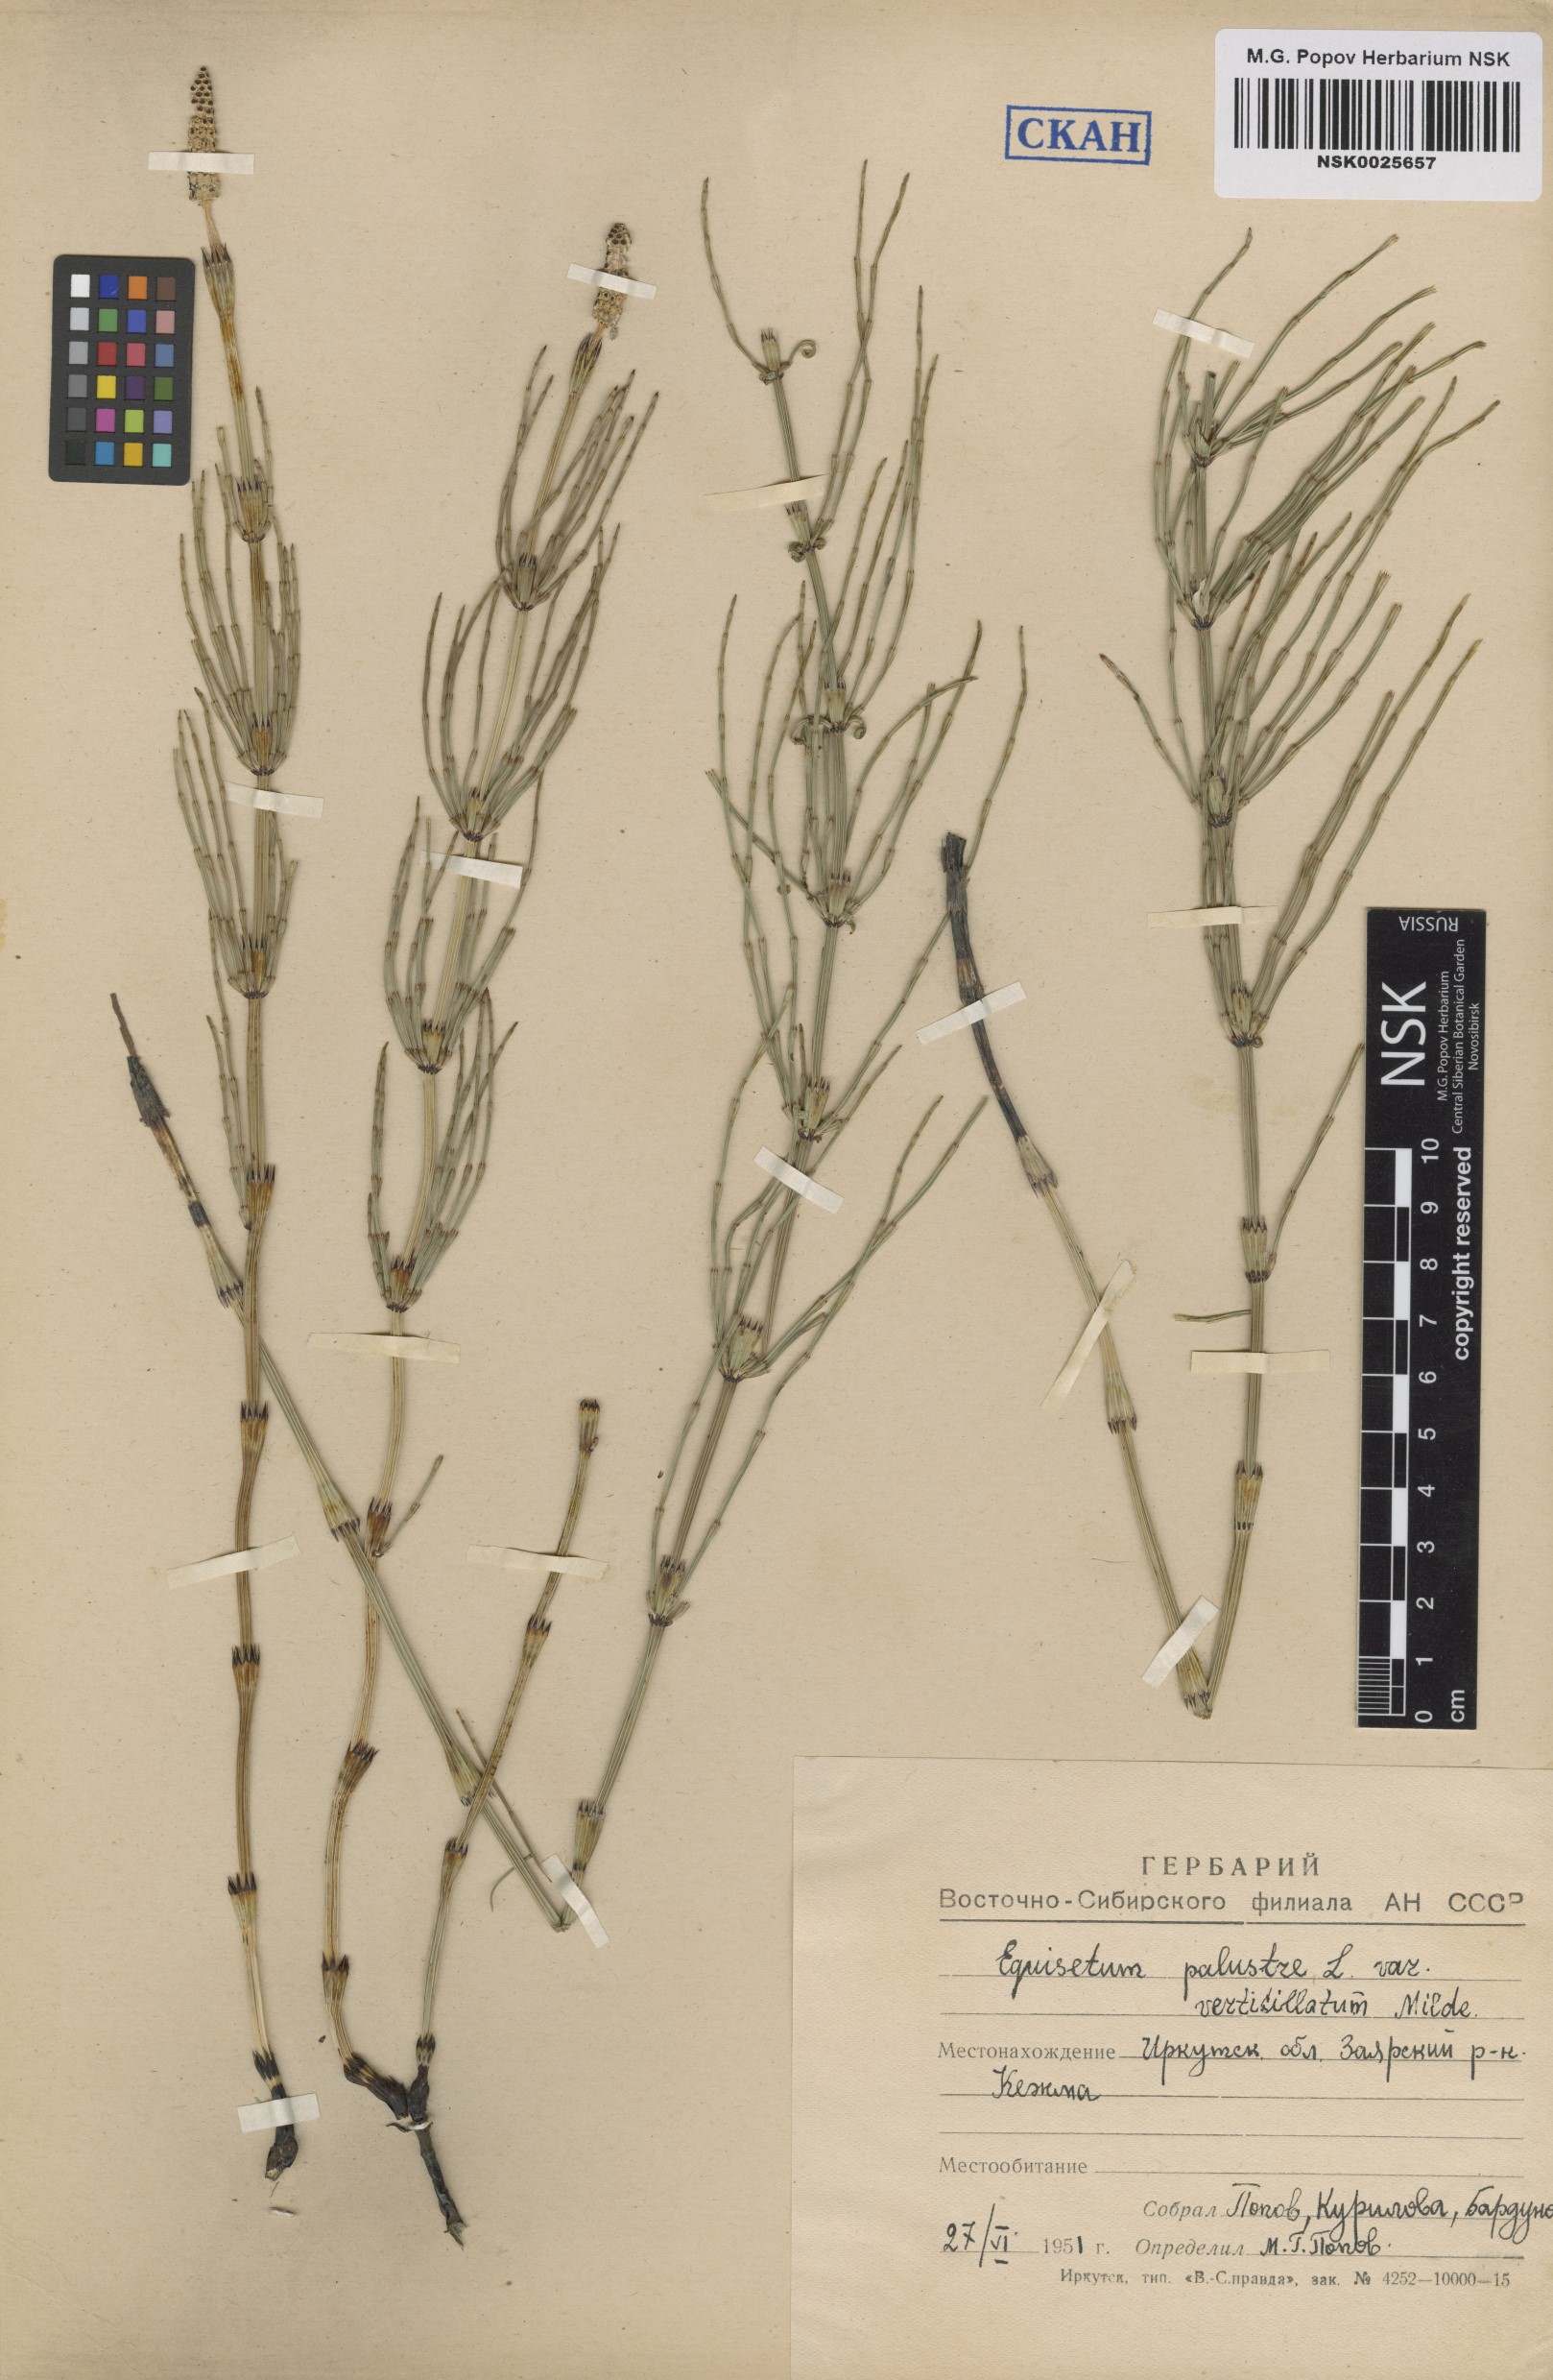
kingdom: Plantae
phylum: Tracheophyta
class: Polypodiopsida
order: Equisetales
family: Equisetaceae
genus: Equisetum
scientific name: Equisetum palustre
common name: Marsh horsetail
